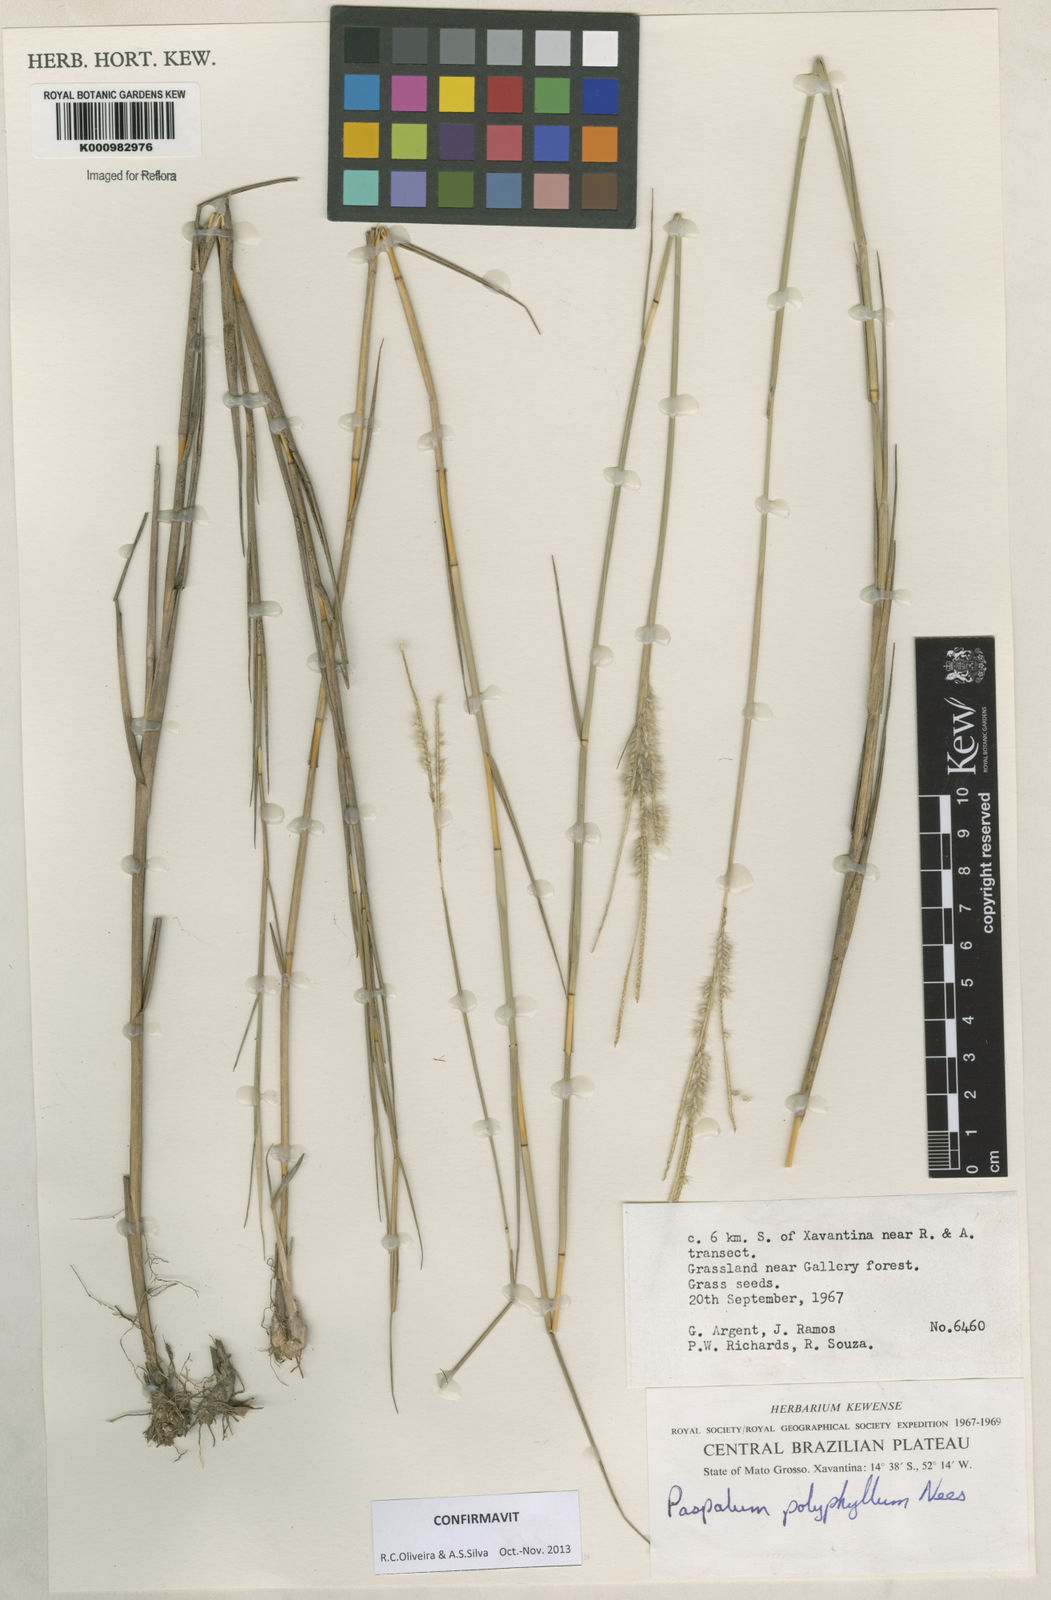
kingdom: Plantae
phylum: Tracheophyta
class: Liliopsida
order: Poales
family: Poaceae
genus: Paspalum
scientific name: Paspalum
